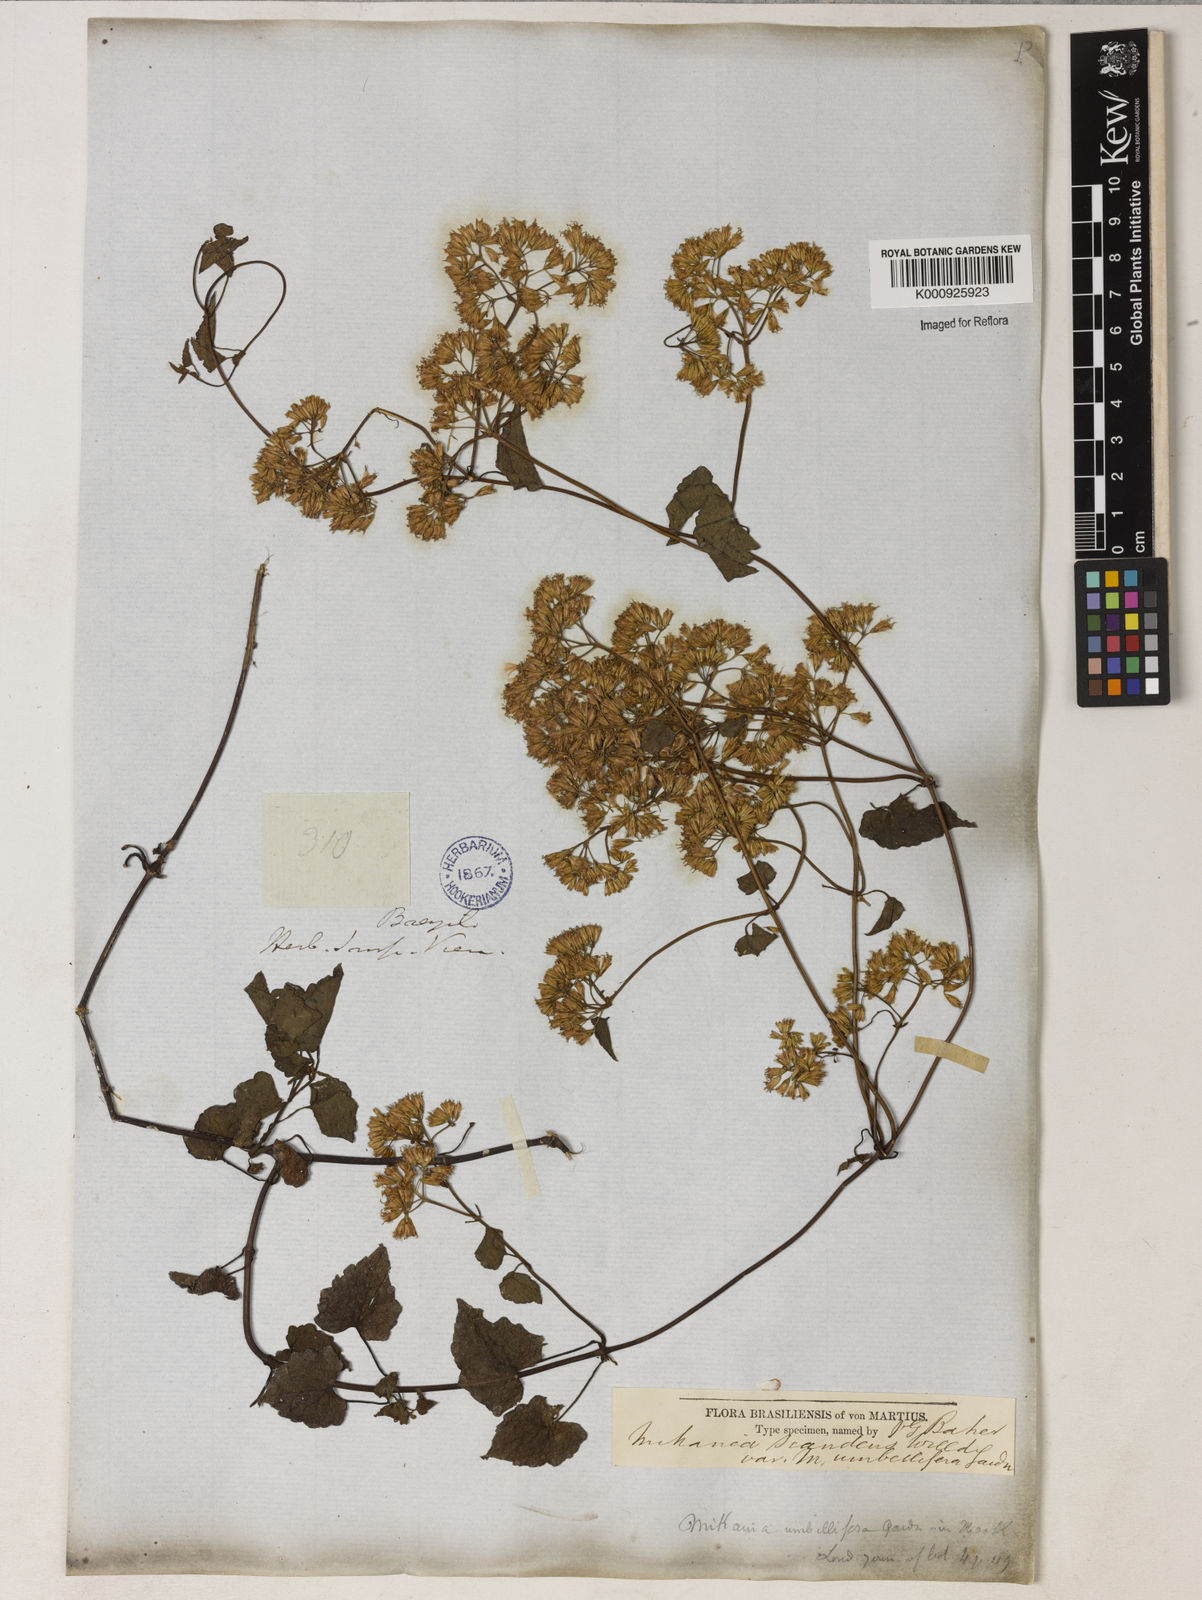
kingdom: Plantae
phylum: Tracheophyta
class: Magnoliopsida
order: Asterales
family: Asteraceae
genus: Mikania
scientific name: Mikania micrantha
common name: Mile-a-minute
